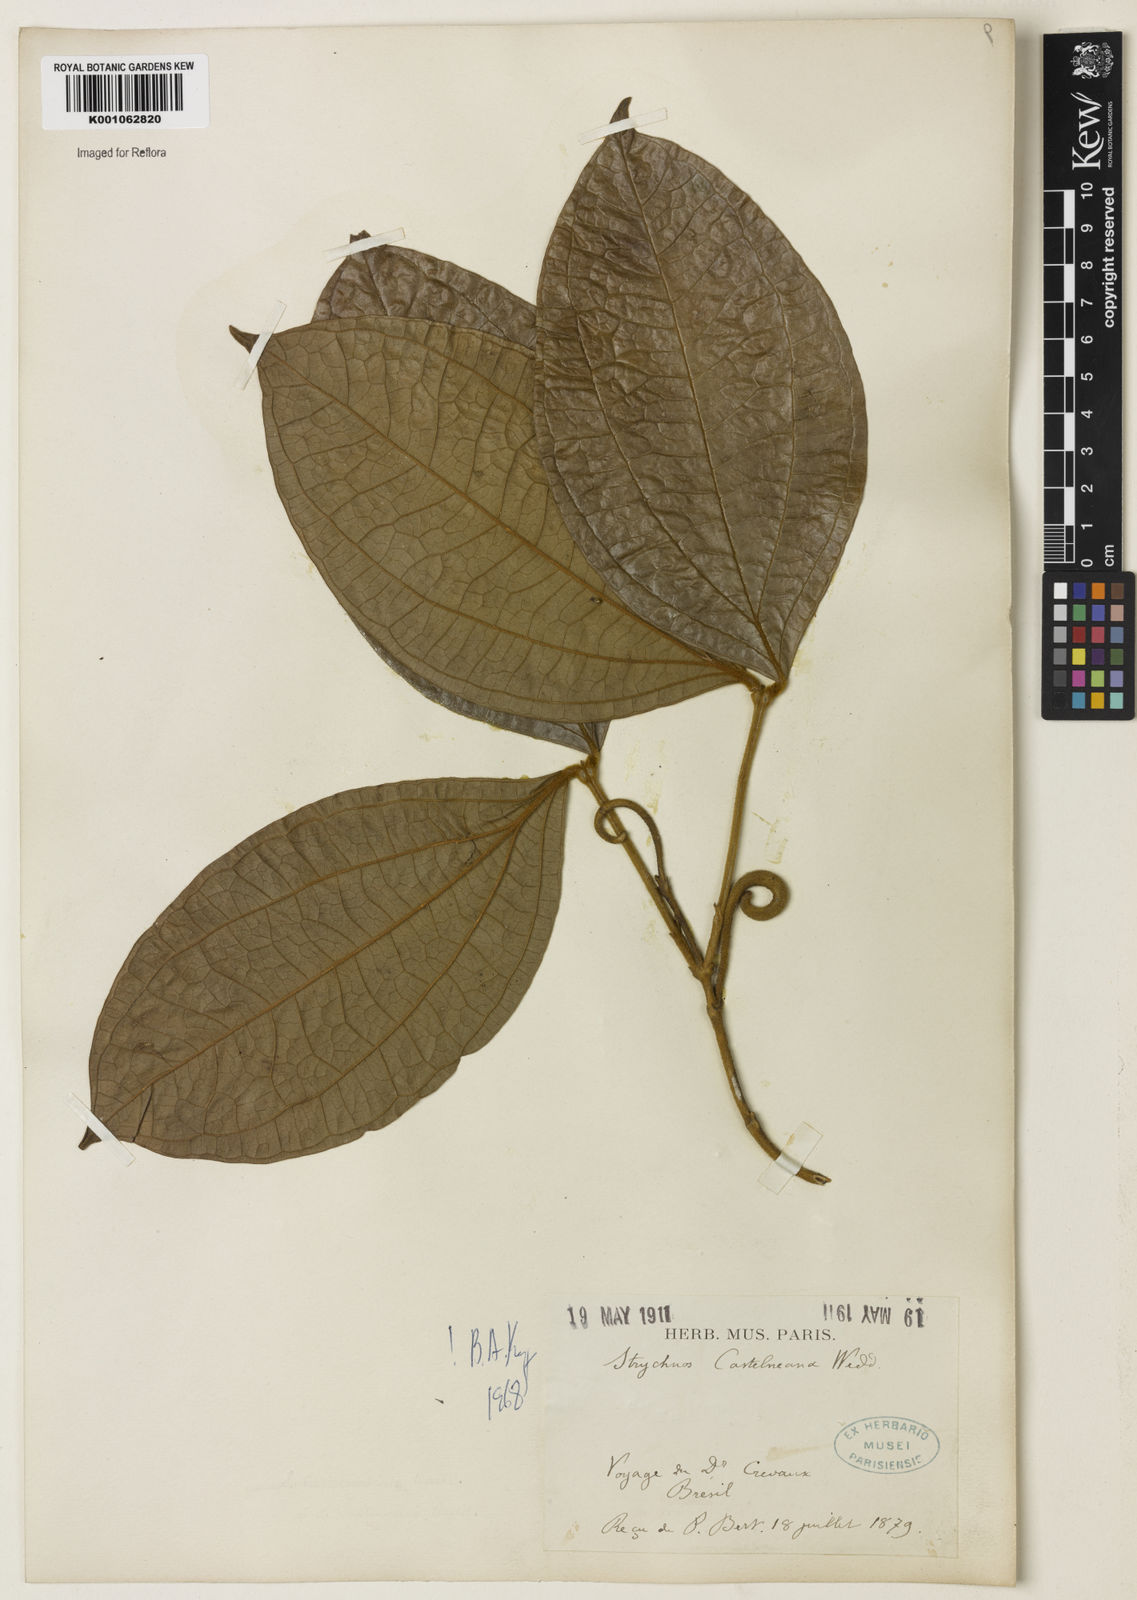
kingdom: Plantae
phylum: Tracheophyta
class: Magnoliopsida
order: Gentianales
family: Loganiaceae
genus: Strychnos
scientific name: Strychnos
